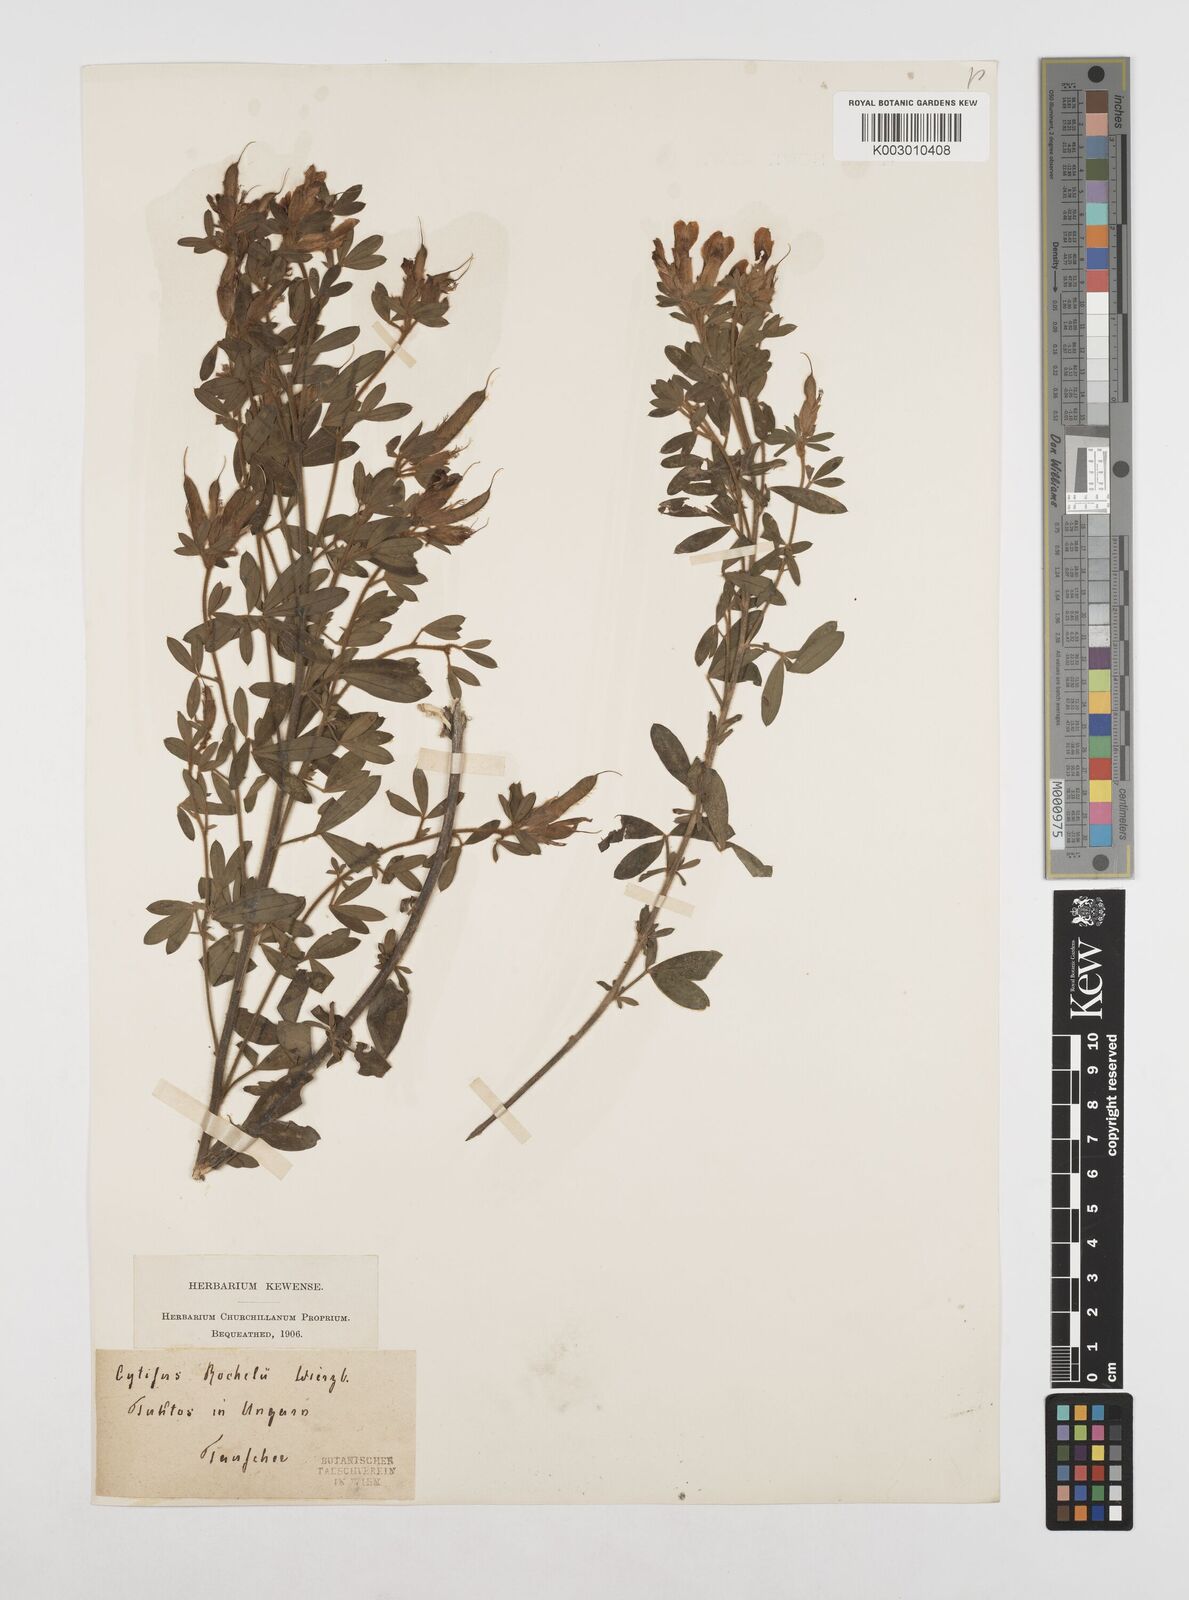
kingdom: Plantae
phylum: Tracheophyta
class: Magnoliopsida
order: Fabales
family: Fabaceae
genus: Chamaecytisus
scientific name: Chamaecytisus rochelii
